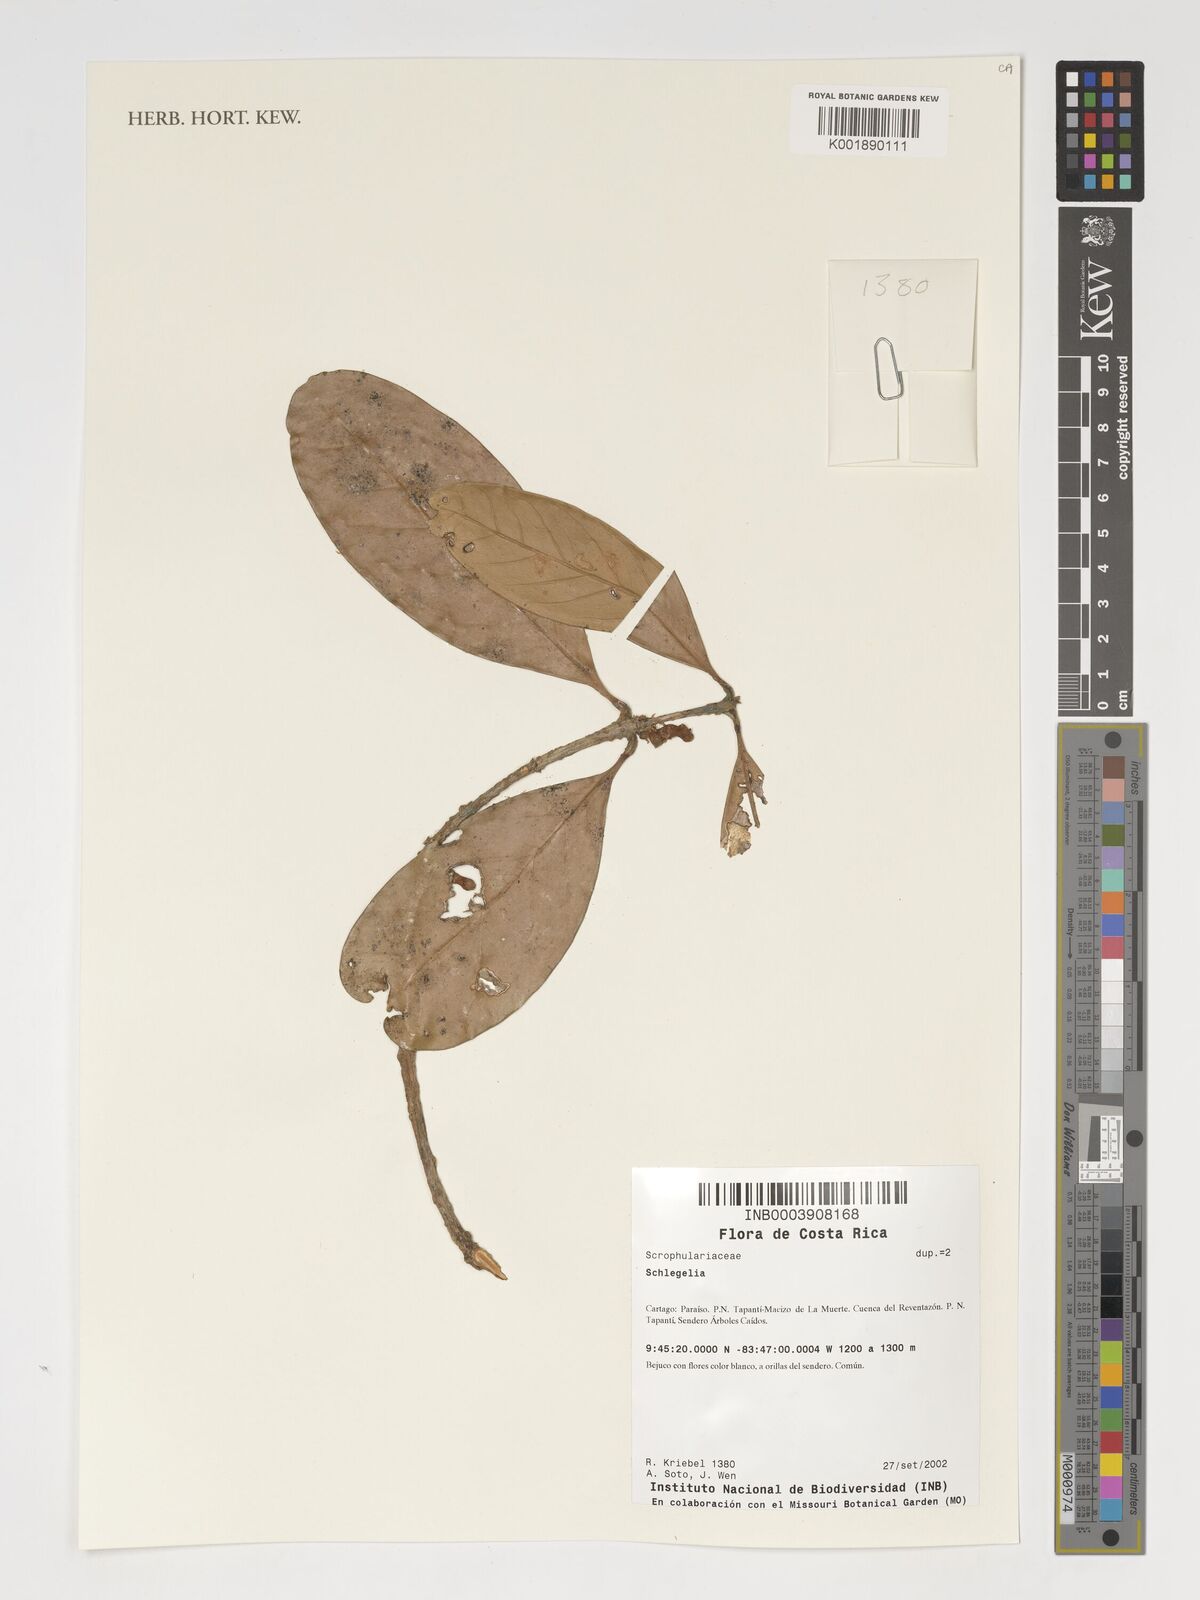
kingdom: Plantae
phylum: Tracheophyta
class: Magnoliopsida
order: Lamiales
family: Schlegeliaceae
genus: Schlegelia
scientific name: Schlegelia
